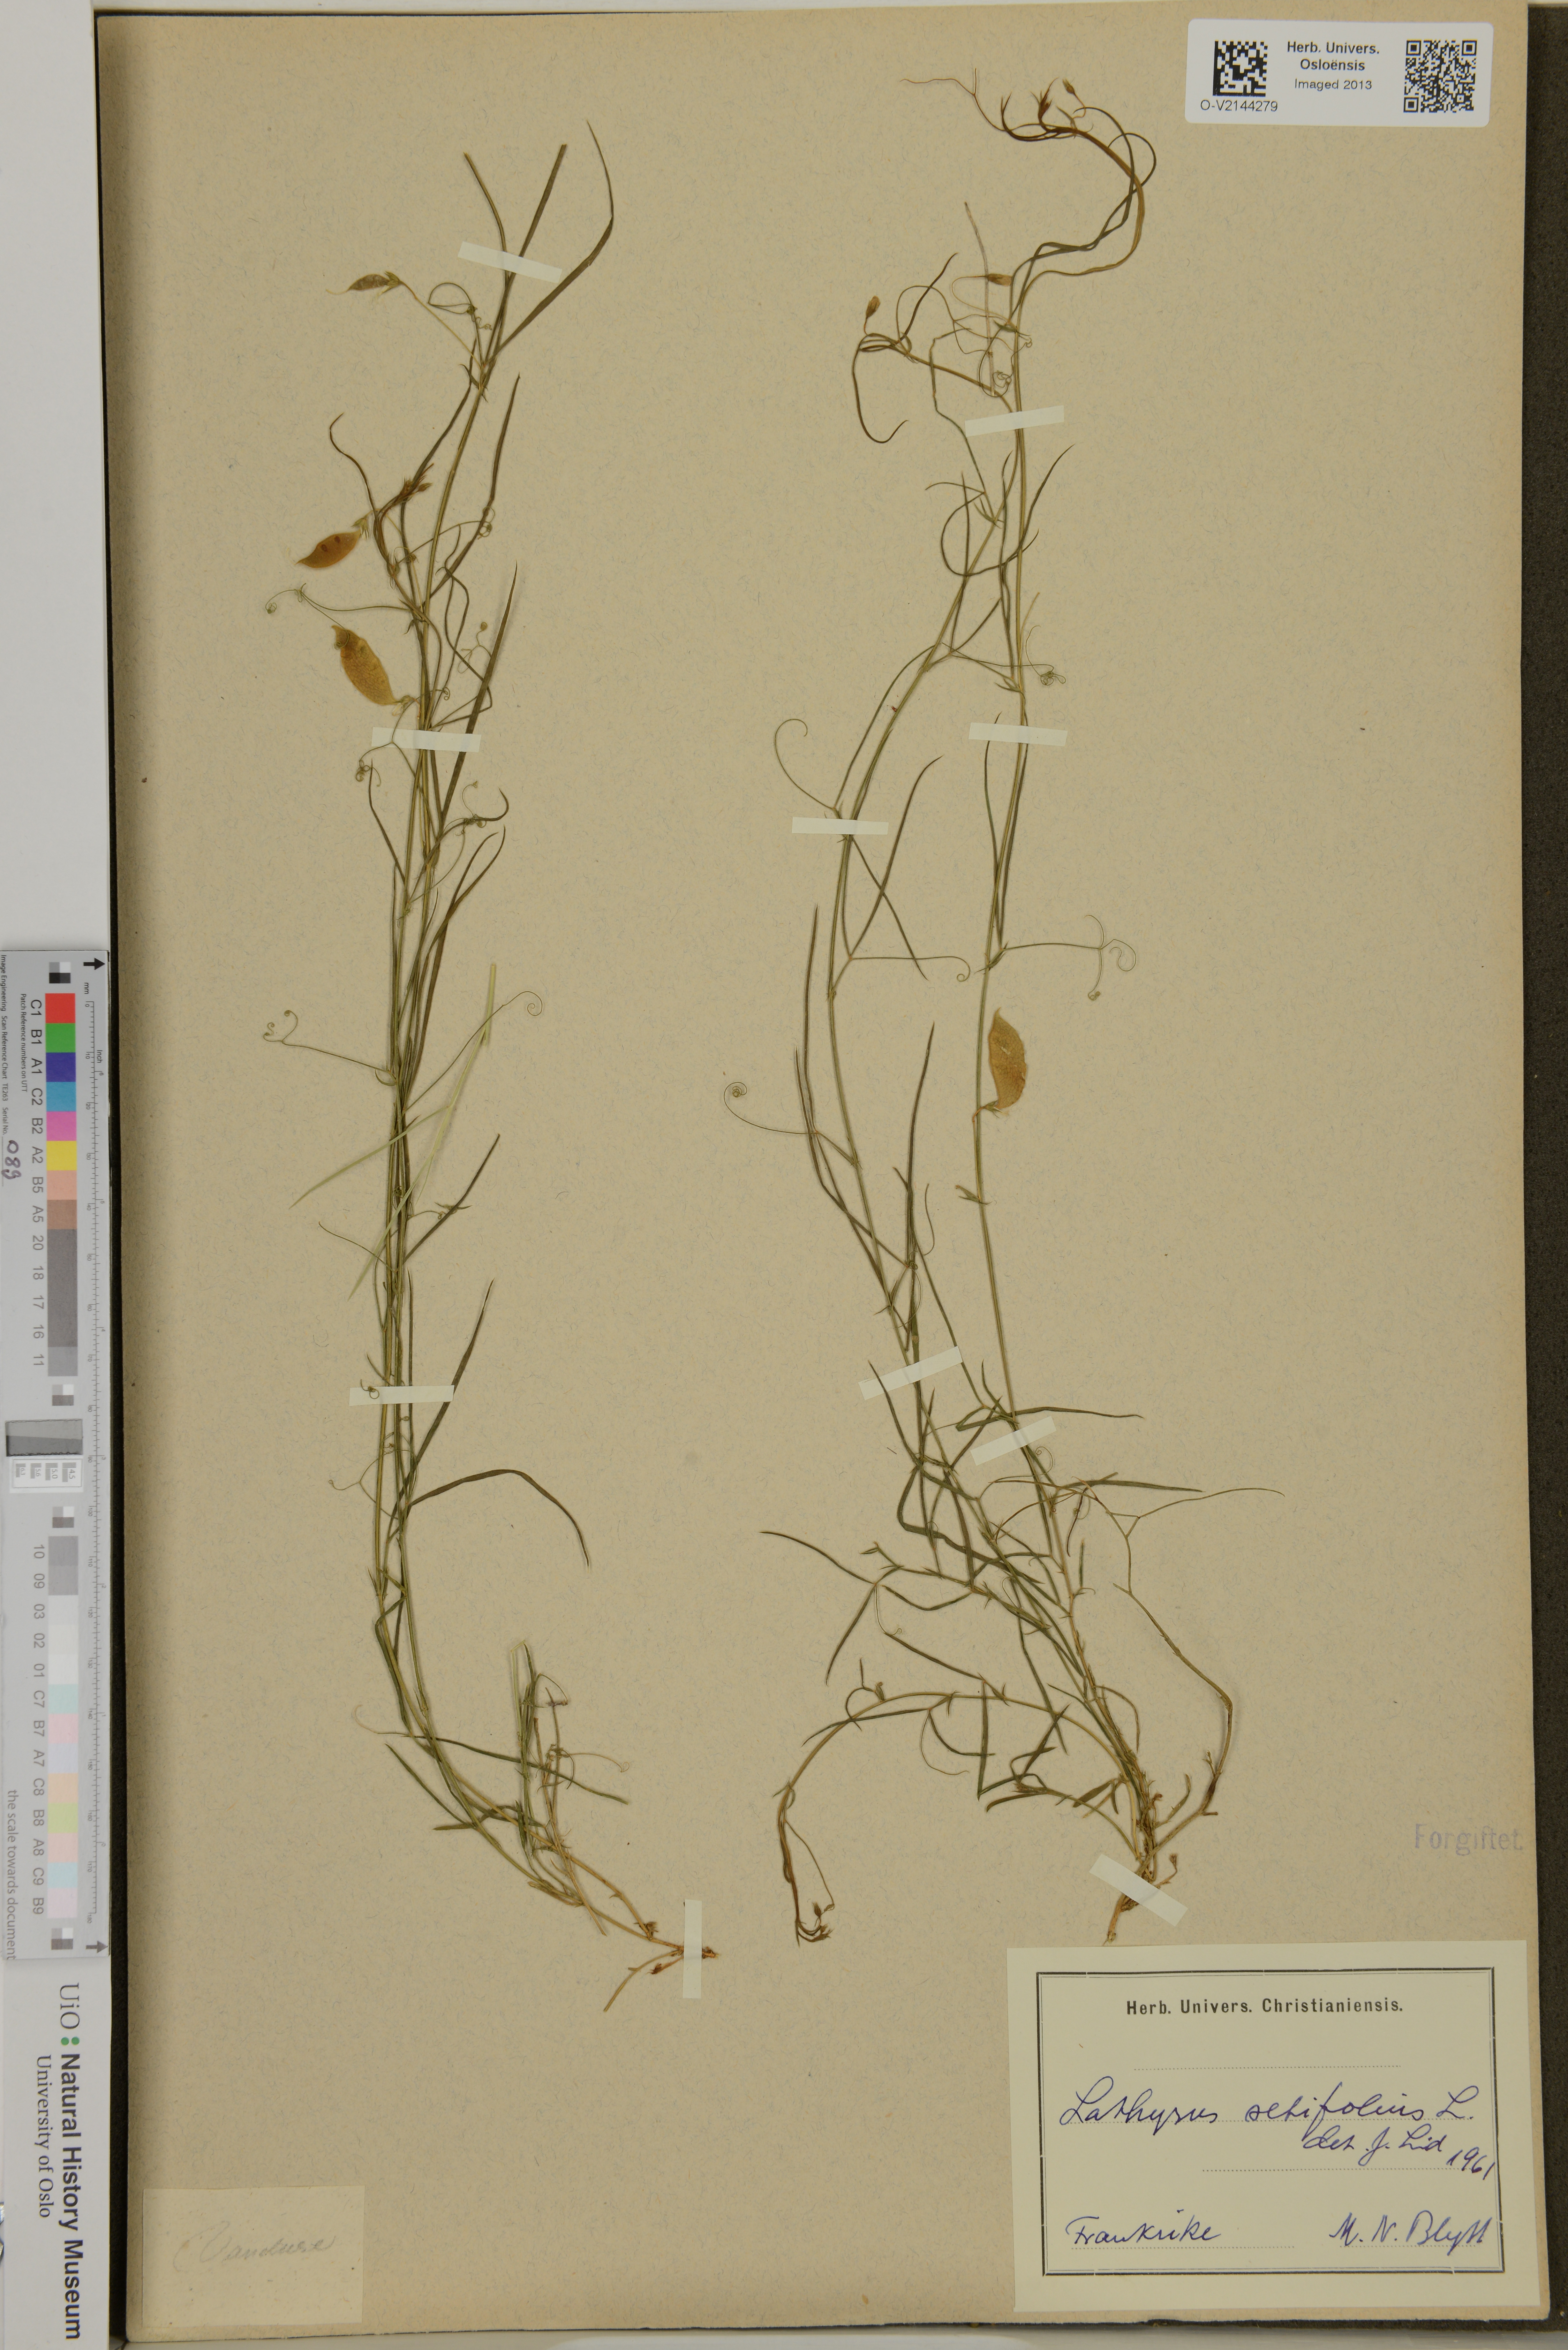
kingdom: Plantae
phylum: Tracheophyta
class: Magnoliopsida
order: Fabales
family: Fabaceae
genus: Lathyrus
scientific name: Lathyrus setifolius
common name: Brown vetchling
